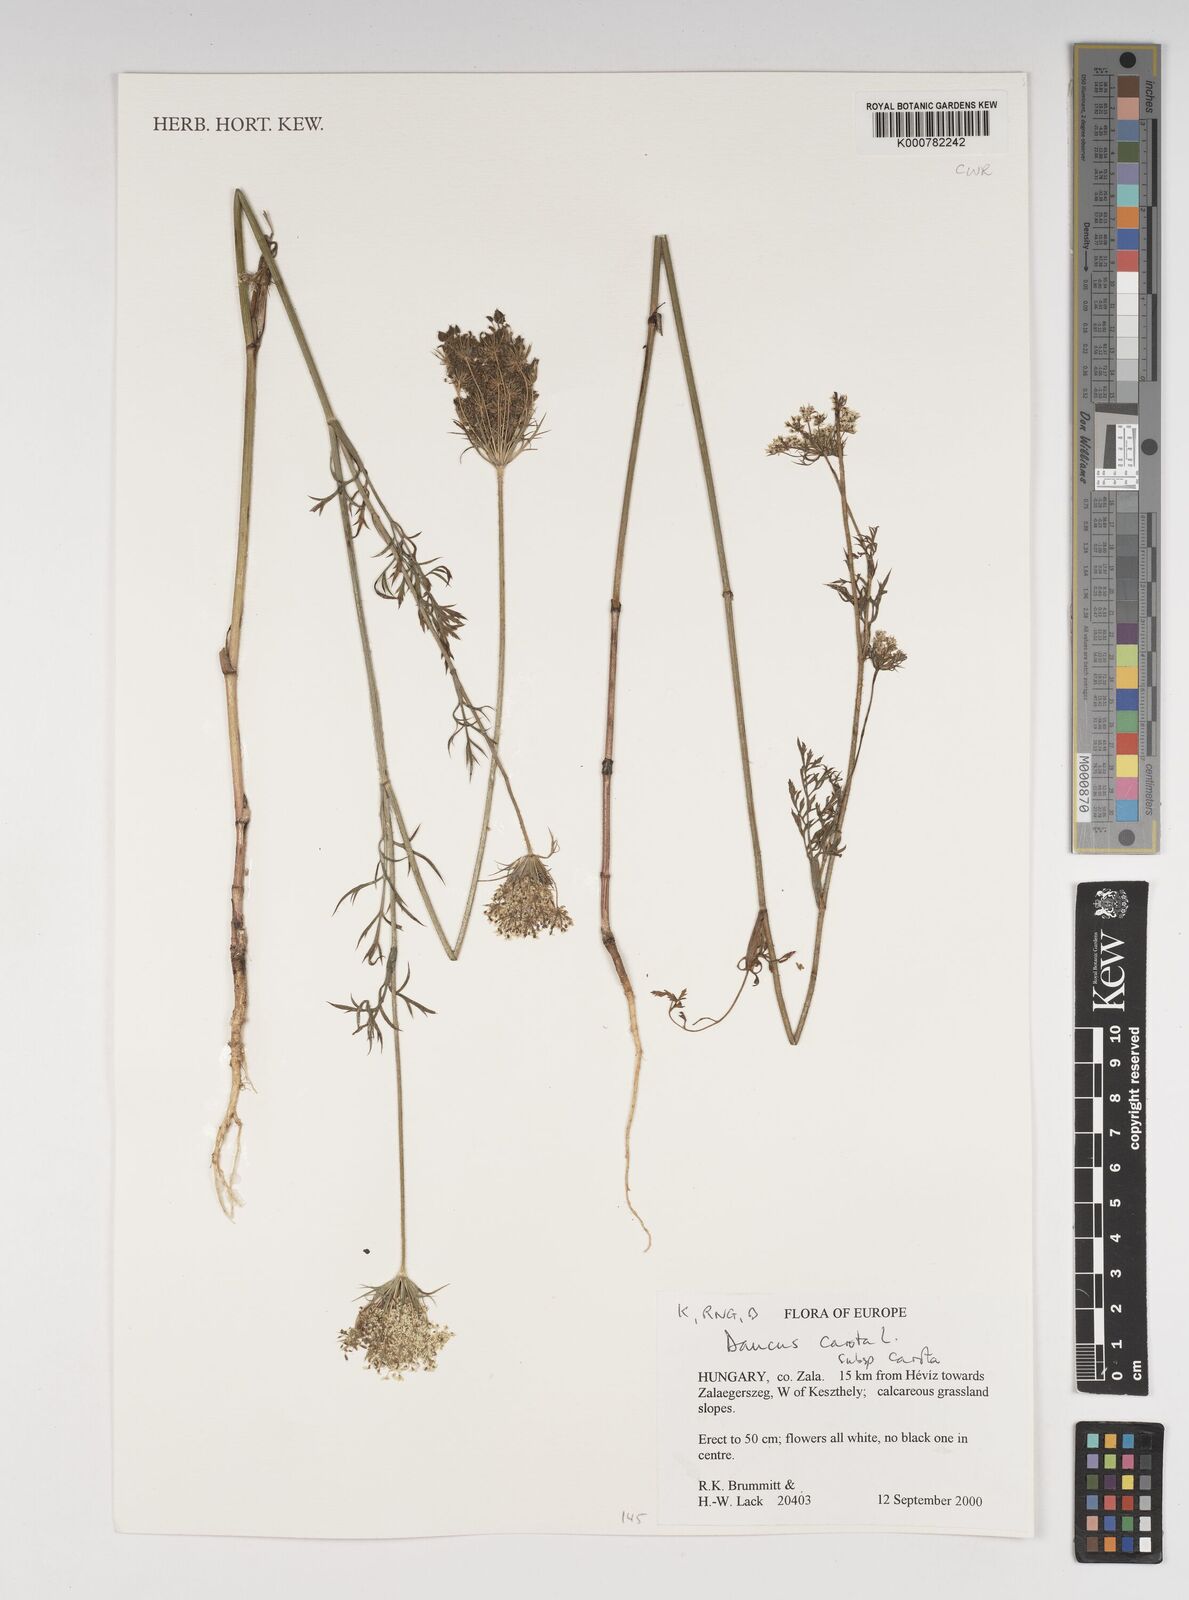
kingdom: Plantae
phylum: Tracheophyta
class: Magnoliopsida
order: Apiales
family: Apiaceae
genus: Daucus
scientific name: Daucus carota
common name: Wild carrot
